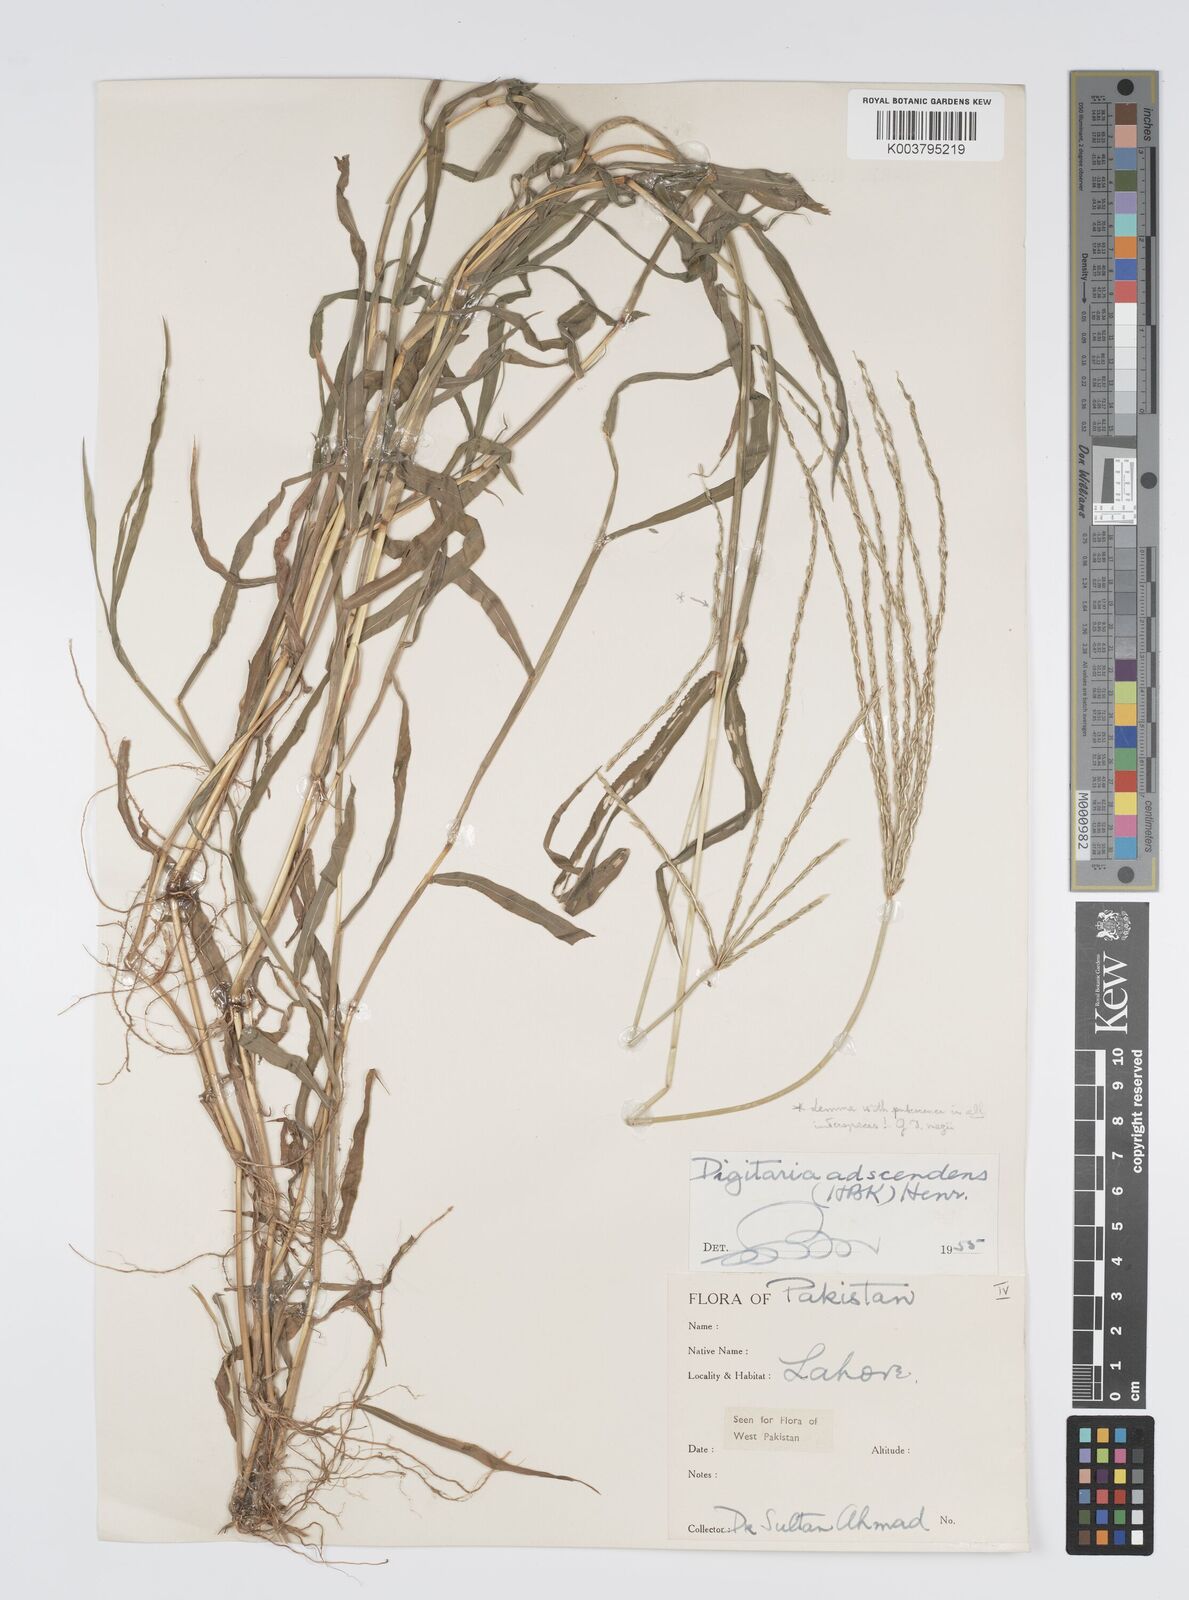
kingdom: Plantae
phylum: Tracheophyta
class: Liliopsida
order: Poales
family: Poaceae
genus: Digitaria
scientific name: Digitaria ciliaris
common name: Tropical finger-grass
